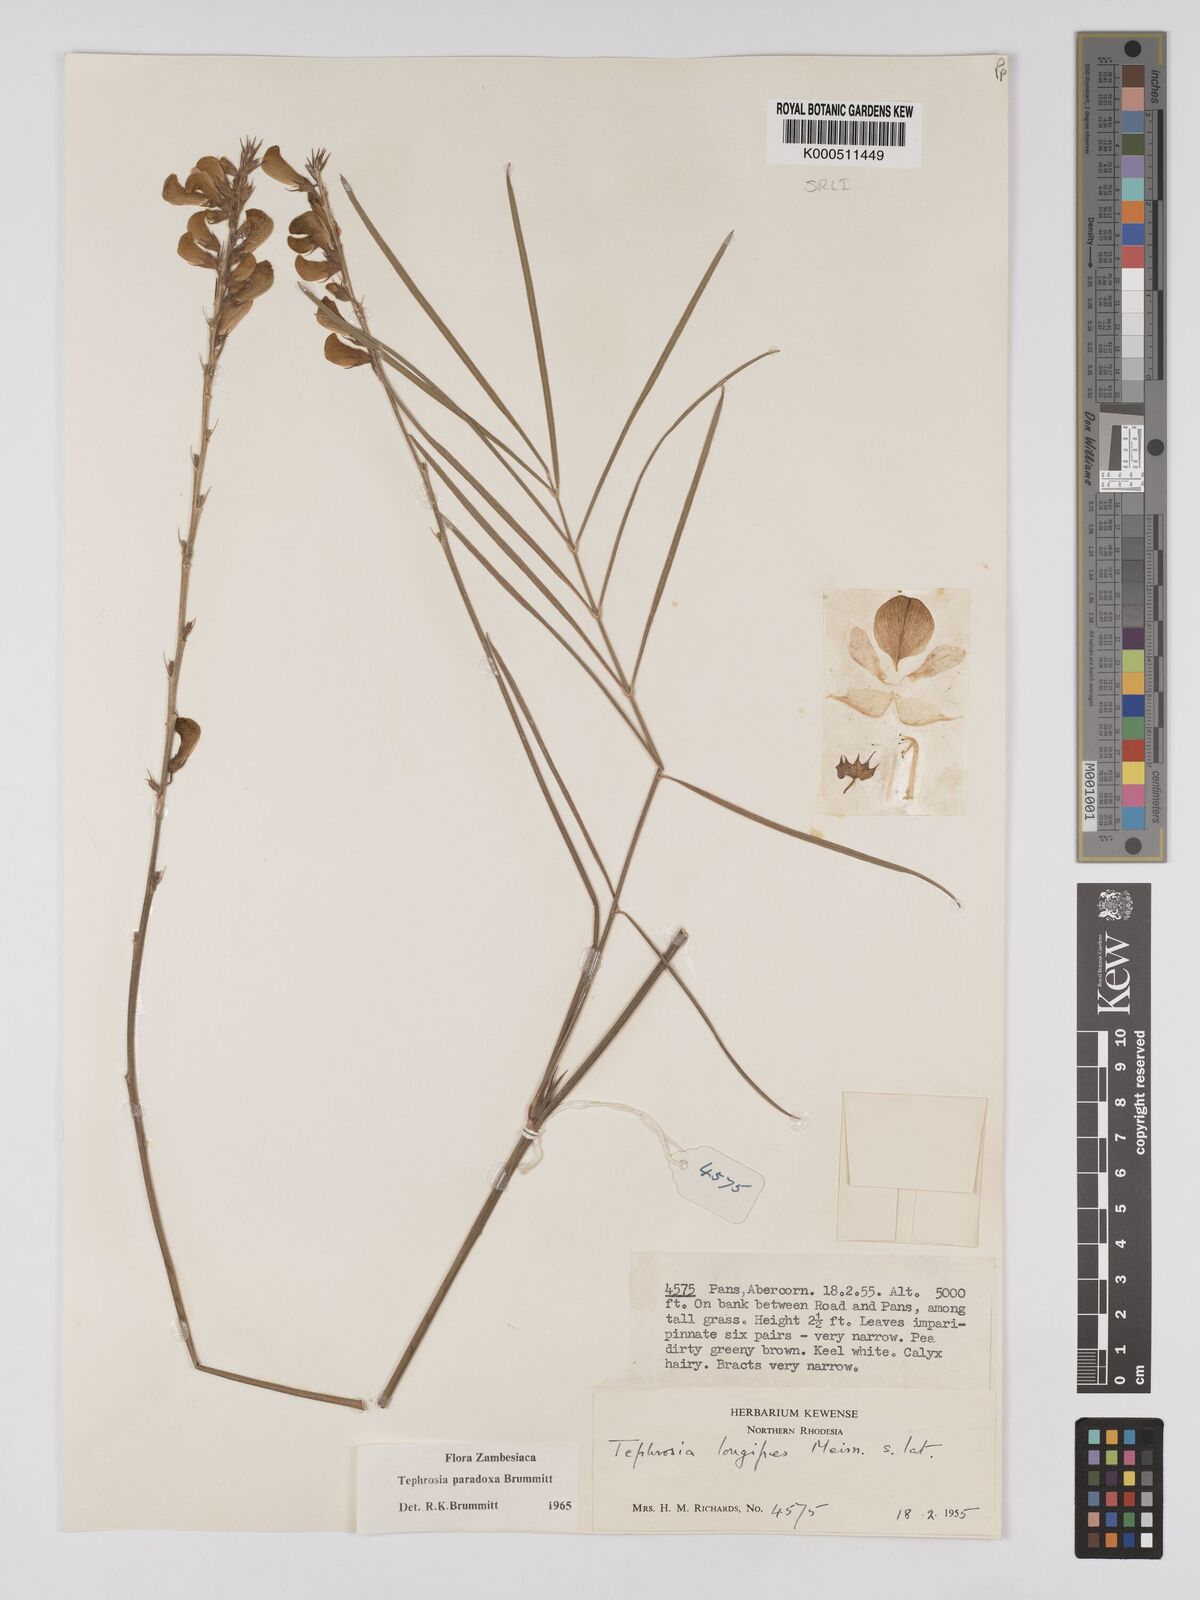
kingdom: Plantae
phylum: Tracheophyta
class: Magnoliopsida
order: Fabales
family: Fabaceae
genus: Tephrosia
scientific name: Tephrosia paradoxa
